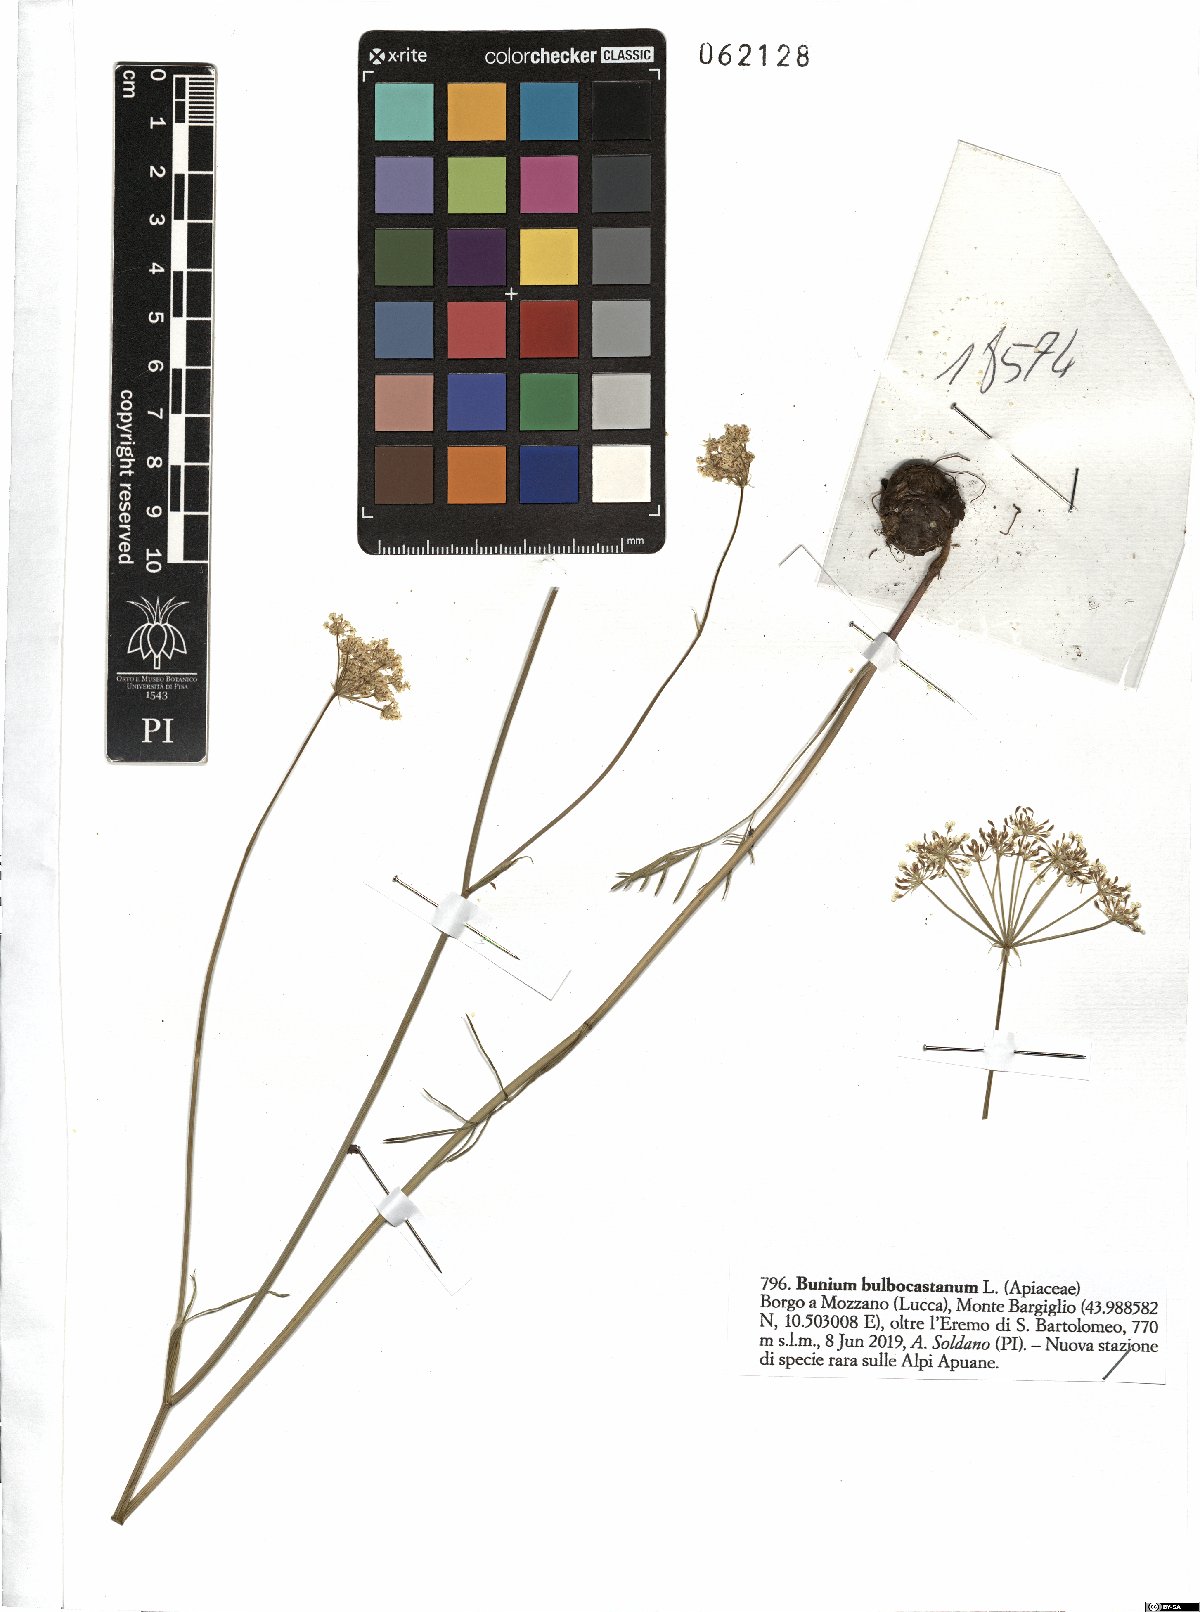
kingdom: Plantae
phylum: Tracheophyta
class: Magnoliopsida
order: Apiales
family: Apiaceae
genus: Bunium
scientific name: Bunium bulbocastanum
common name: Great pignut
